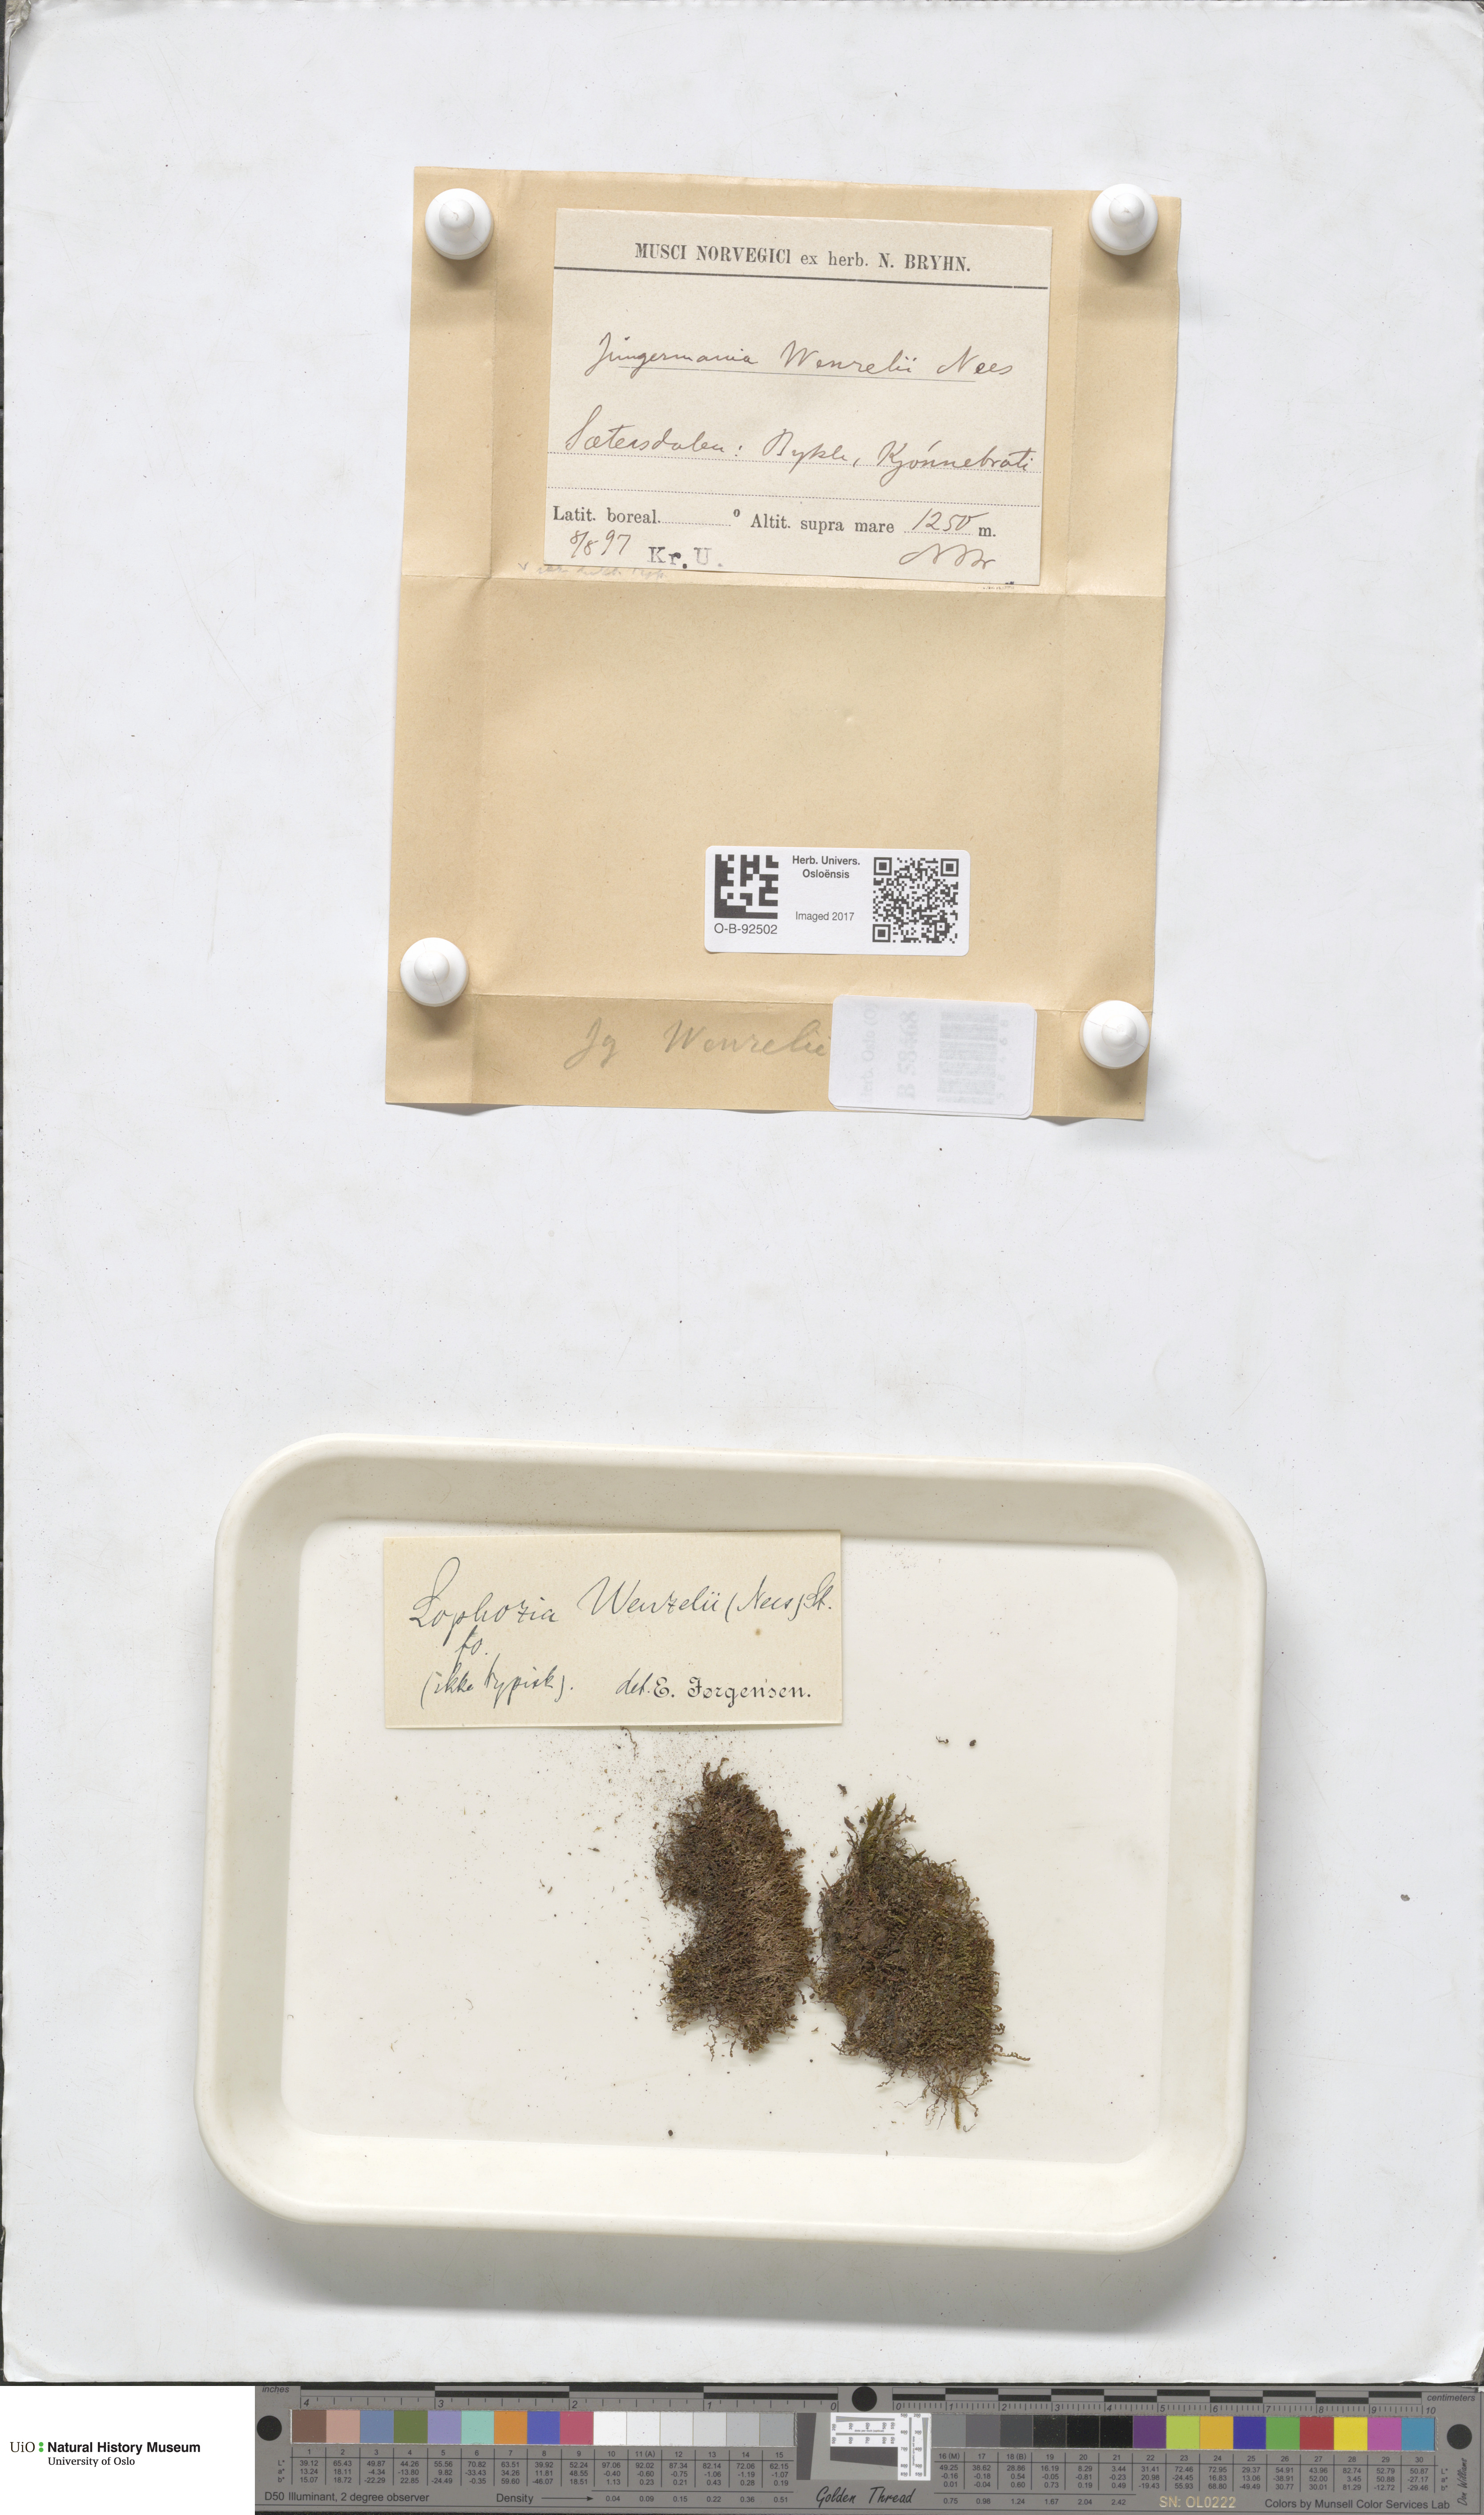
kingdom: Plantae
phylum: Marchantiophyta
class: Jungermanniopsida
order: Jungermanniales
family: Lophoziaceae
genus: Lophozia
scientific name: Lophozia wenzelii
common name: Wenzel s notchwort
